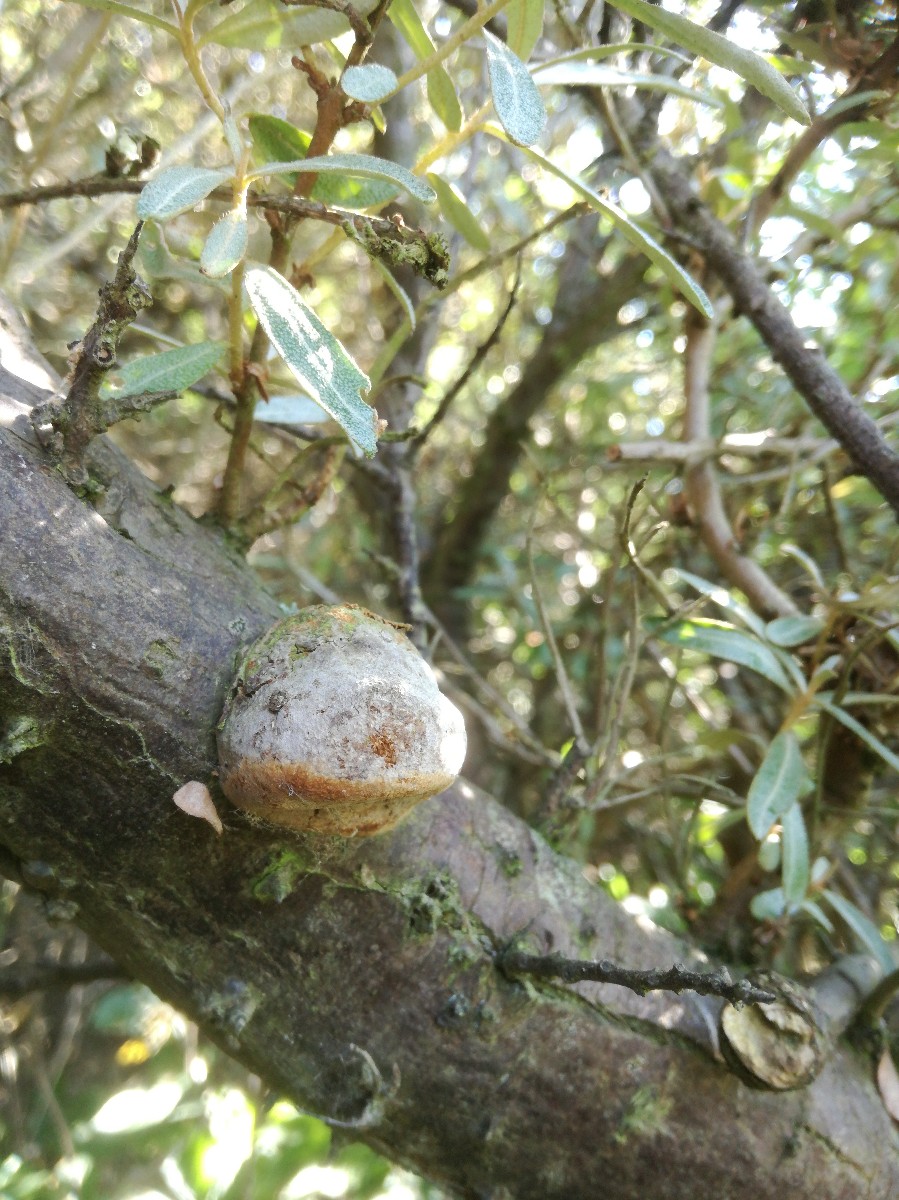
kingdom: Fungi
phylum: Basidiomycota
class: Agaricomycetes
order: Hymenochaetales
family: Hymenochaetaceae
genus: Fomitiporia
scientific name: Fomitiporia hippophaeicola
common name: havtorn-ildporesvamp
